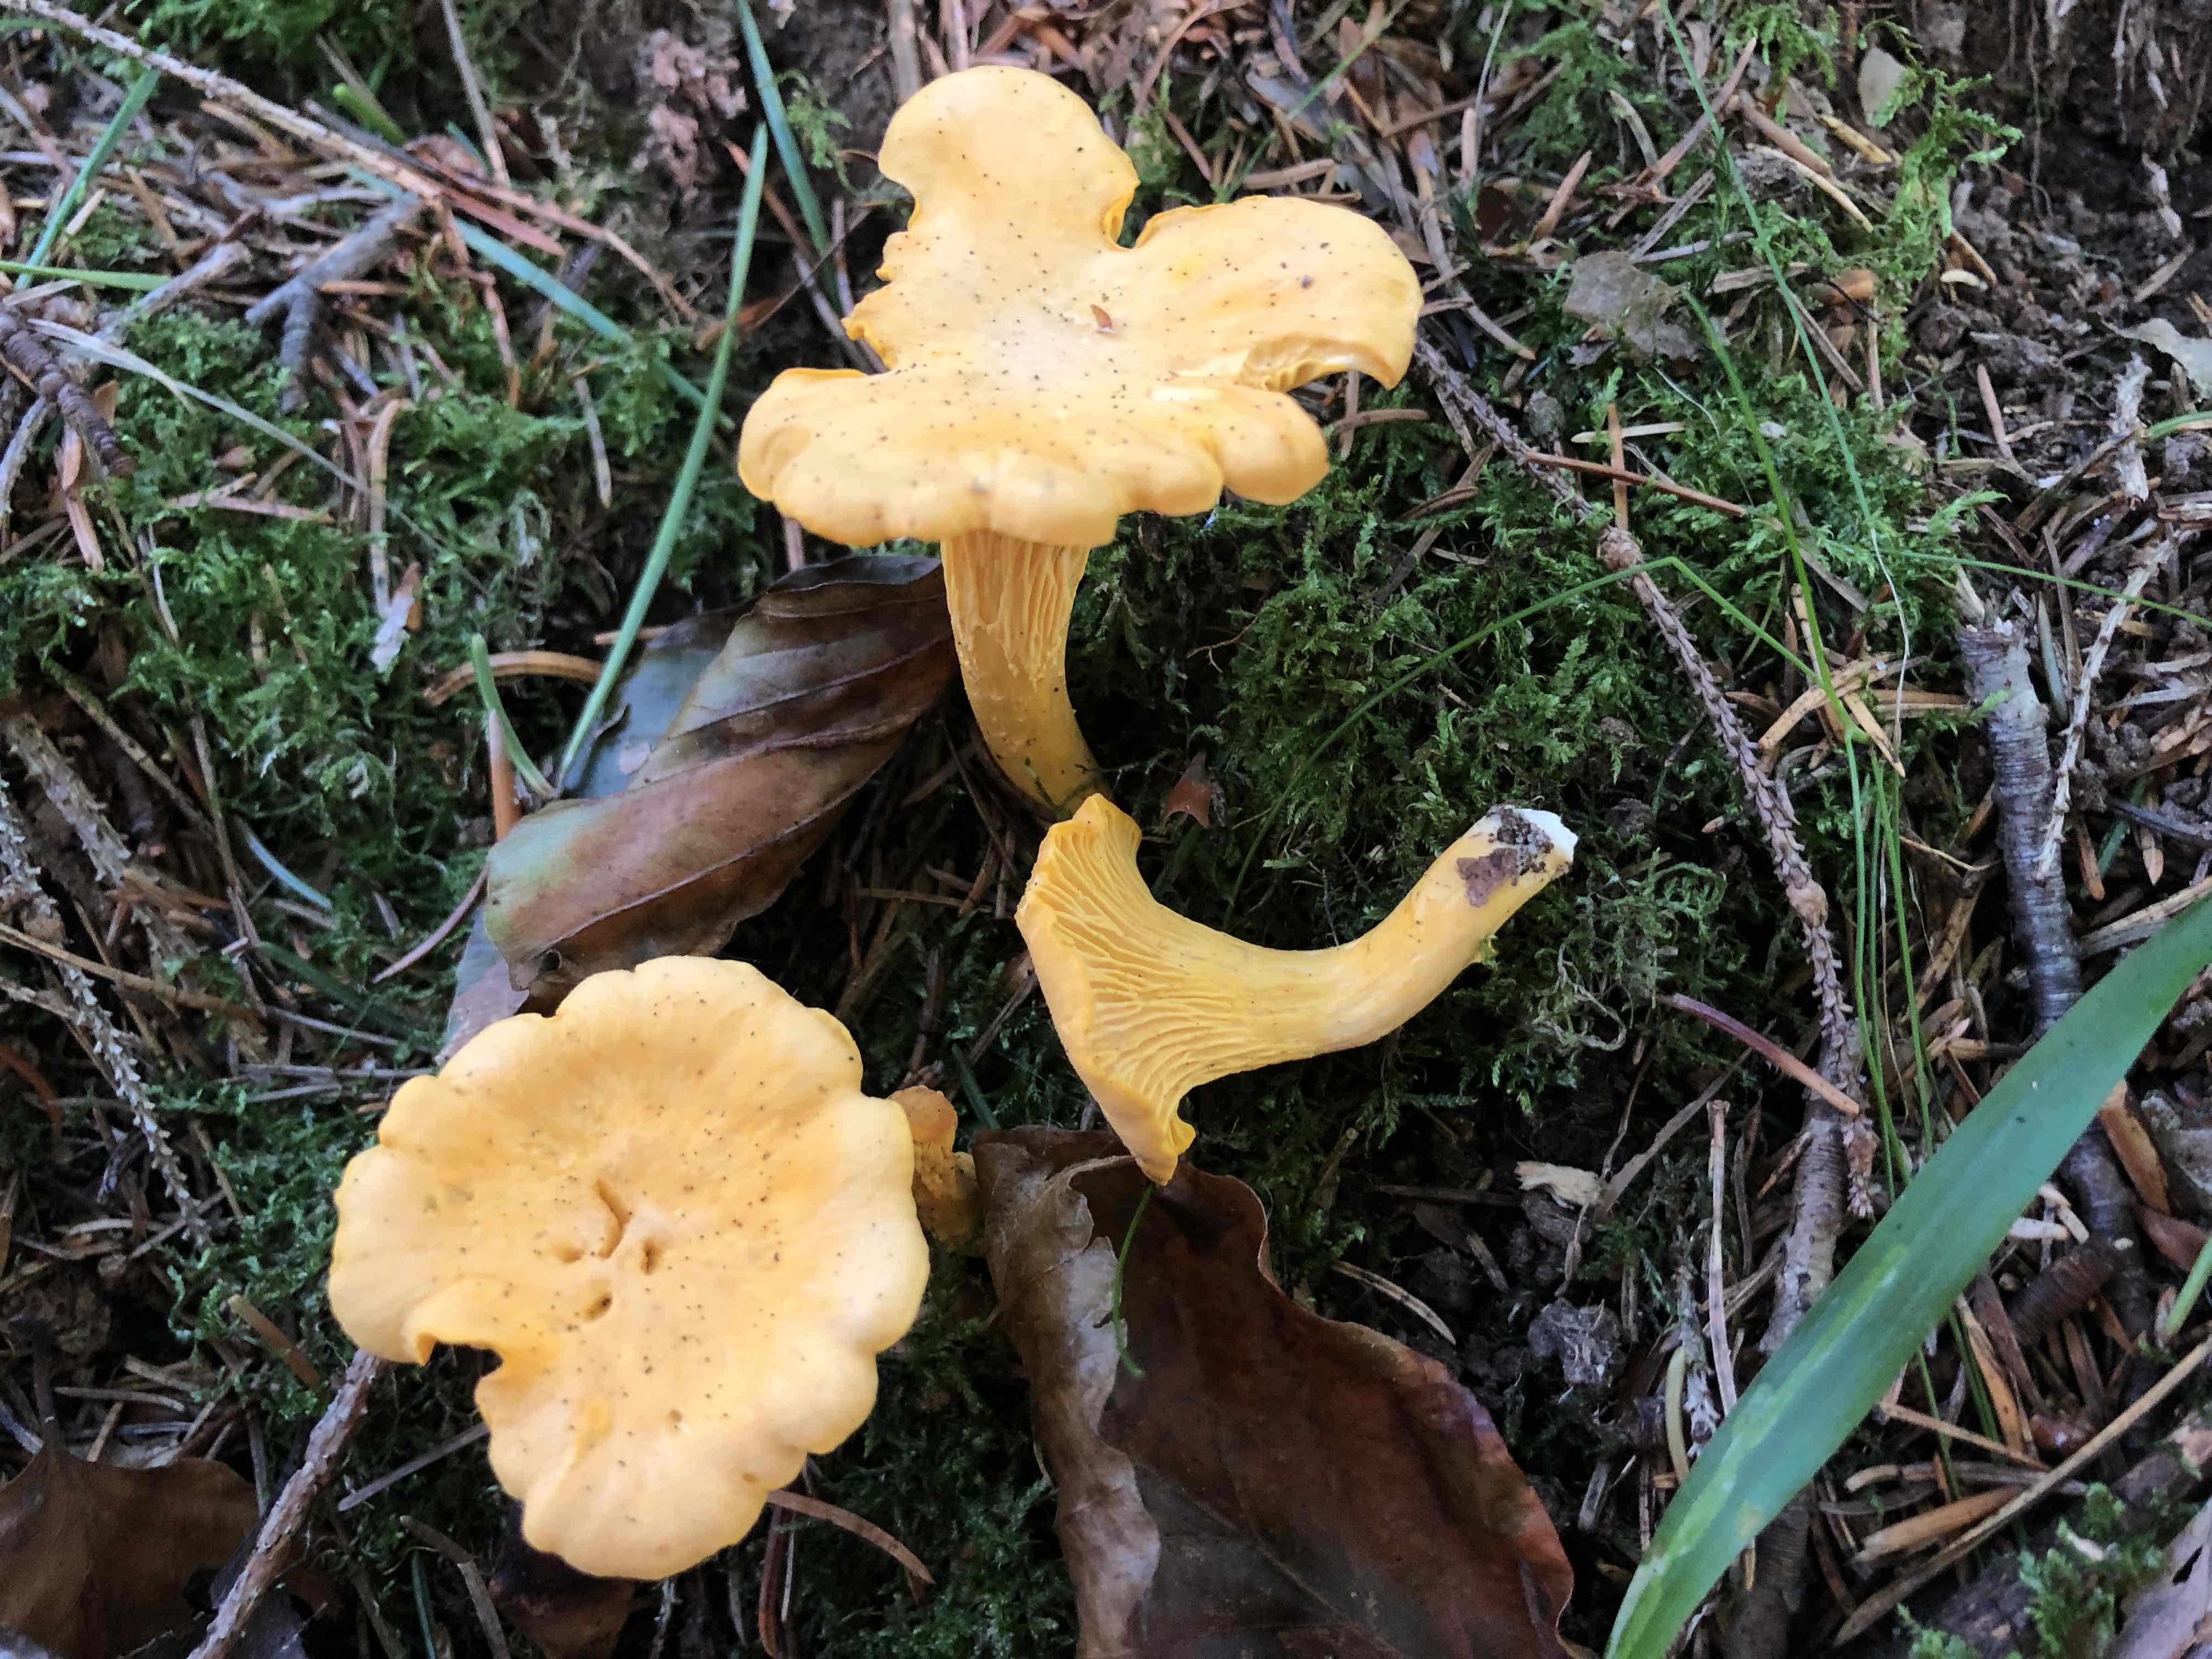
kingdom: Fungi
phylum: Basidiomycota
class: Agaricomycetes
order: Cantharellales
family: Hydnaceae
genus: Cantharellus
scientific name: Cantharellus cibarius
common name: almindelig kantarel
